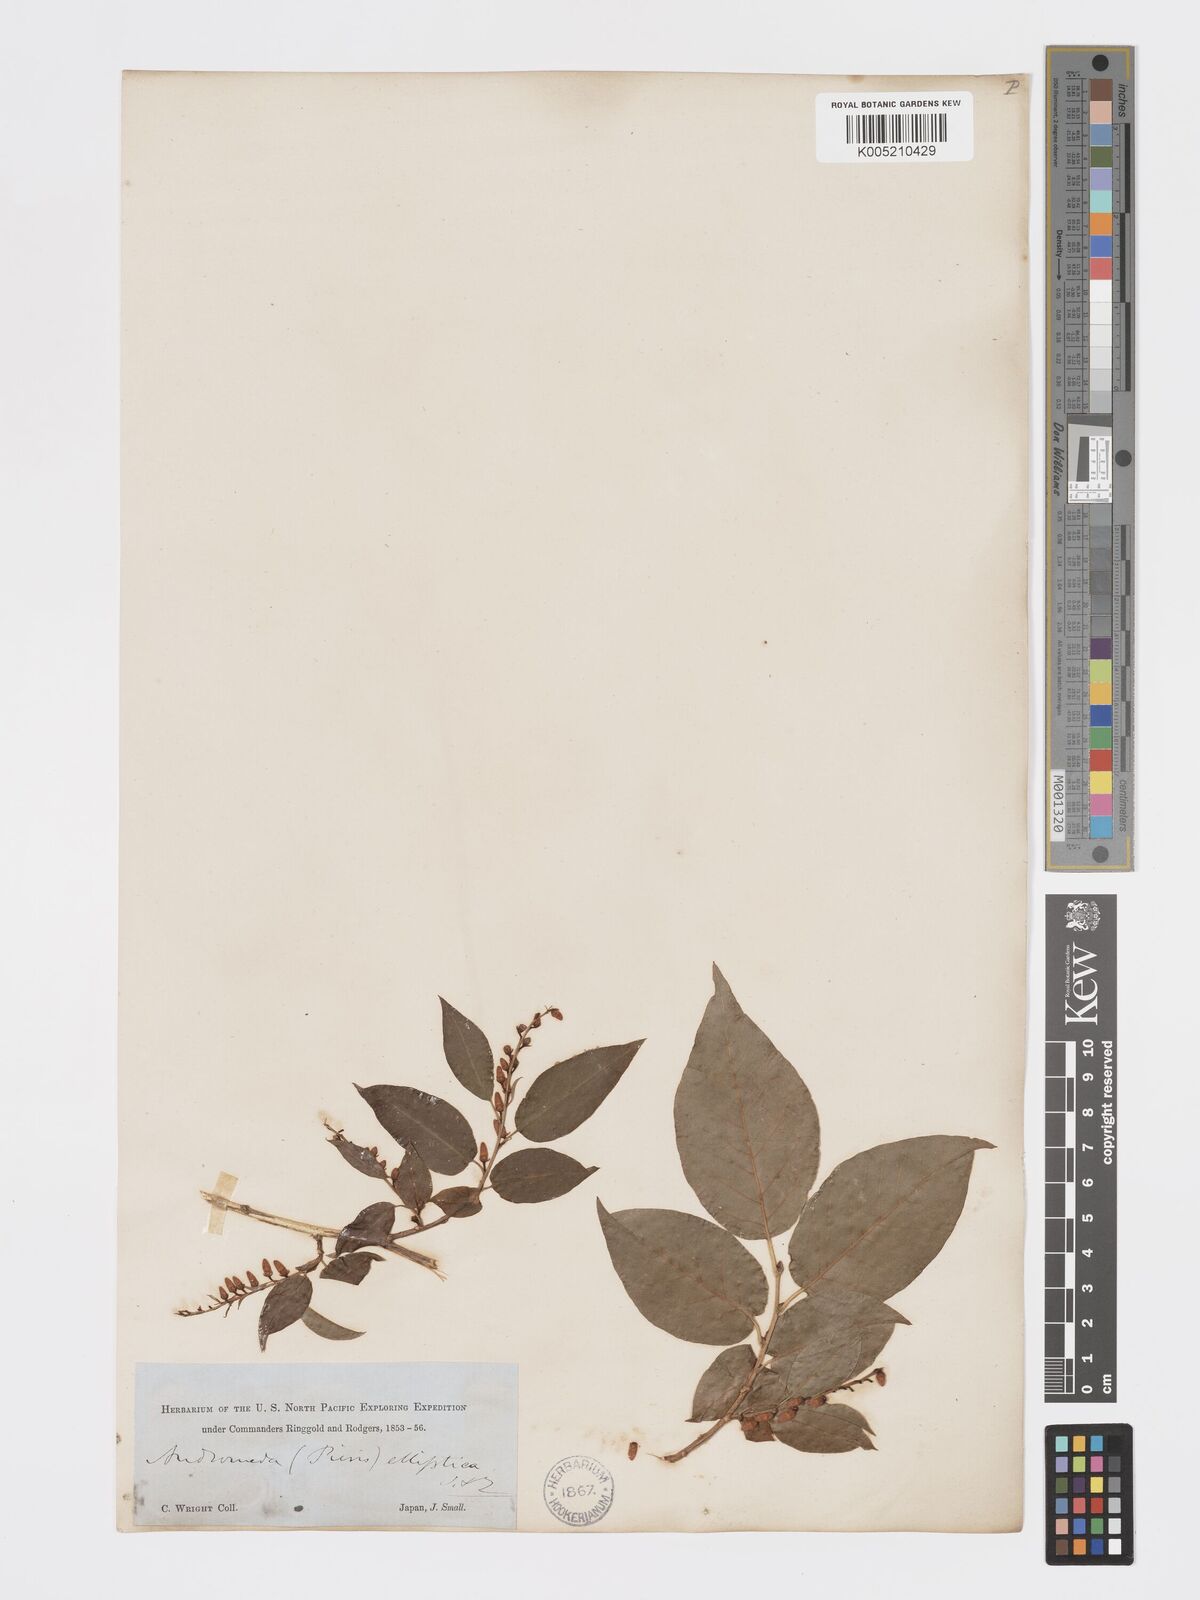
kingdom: Plantae
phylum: Tracheophyta
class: Magnoliopsida
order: Ericales
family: Ericaceae
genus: Lyonia
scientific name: Lyonia elliptica
